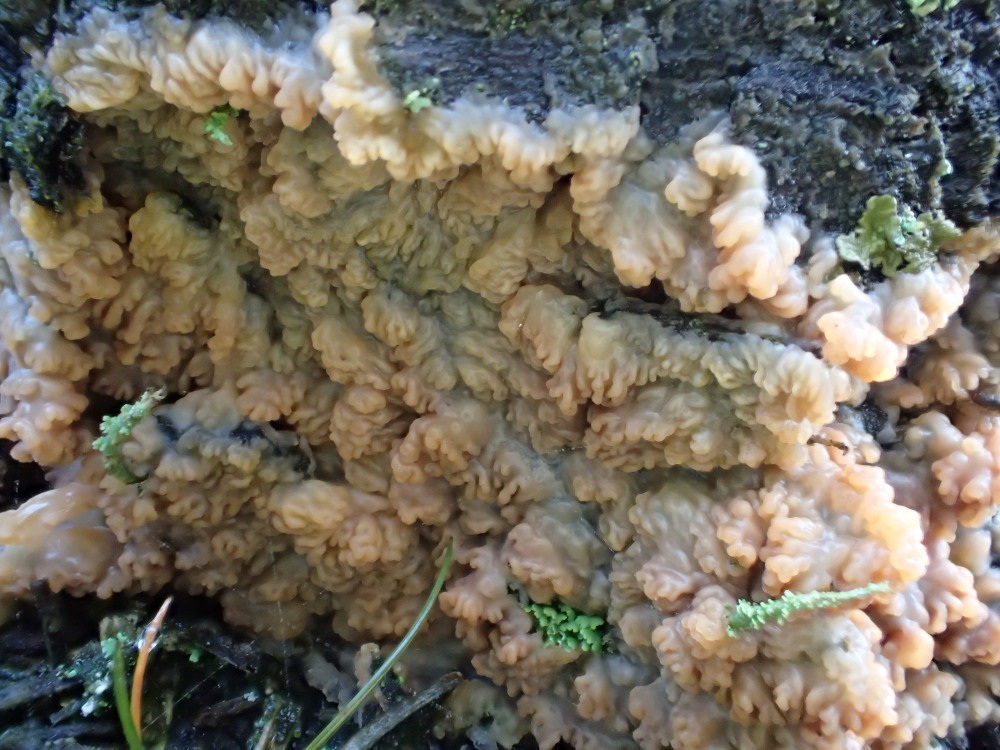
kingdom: Fungi
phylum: Basidiomycota
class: Agaricomycetes
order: Polyporales
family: Meruliaceae
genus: Phlebia
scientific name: Phlebia radiata
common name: stråle-åresvamp
